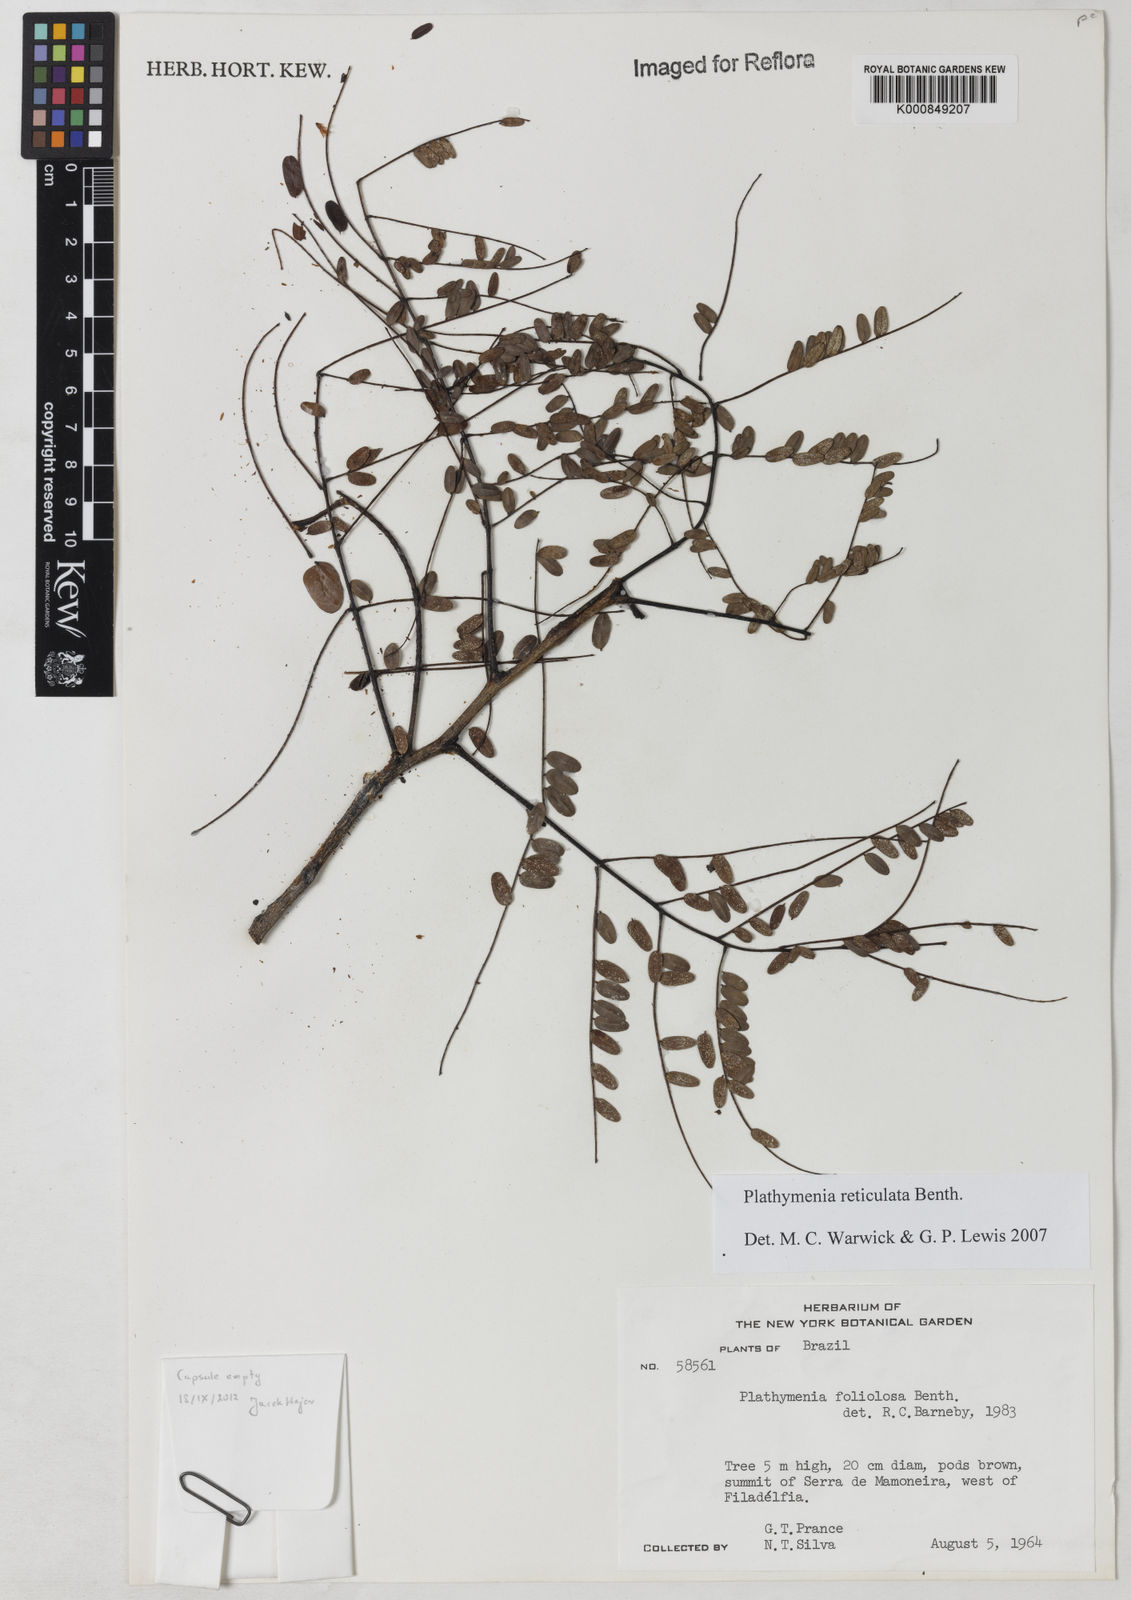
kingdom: Plantae
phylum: Tracheophyta
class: Magnoliopsida
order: Fabales
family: Fabaceae
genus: Plathymenia
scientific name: Plathymenia reticulata
